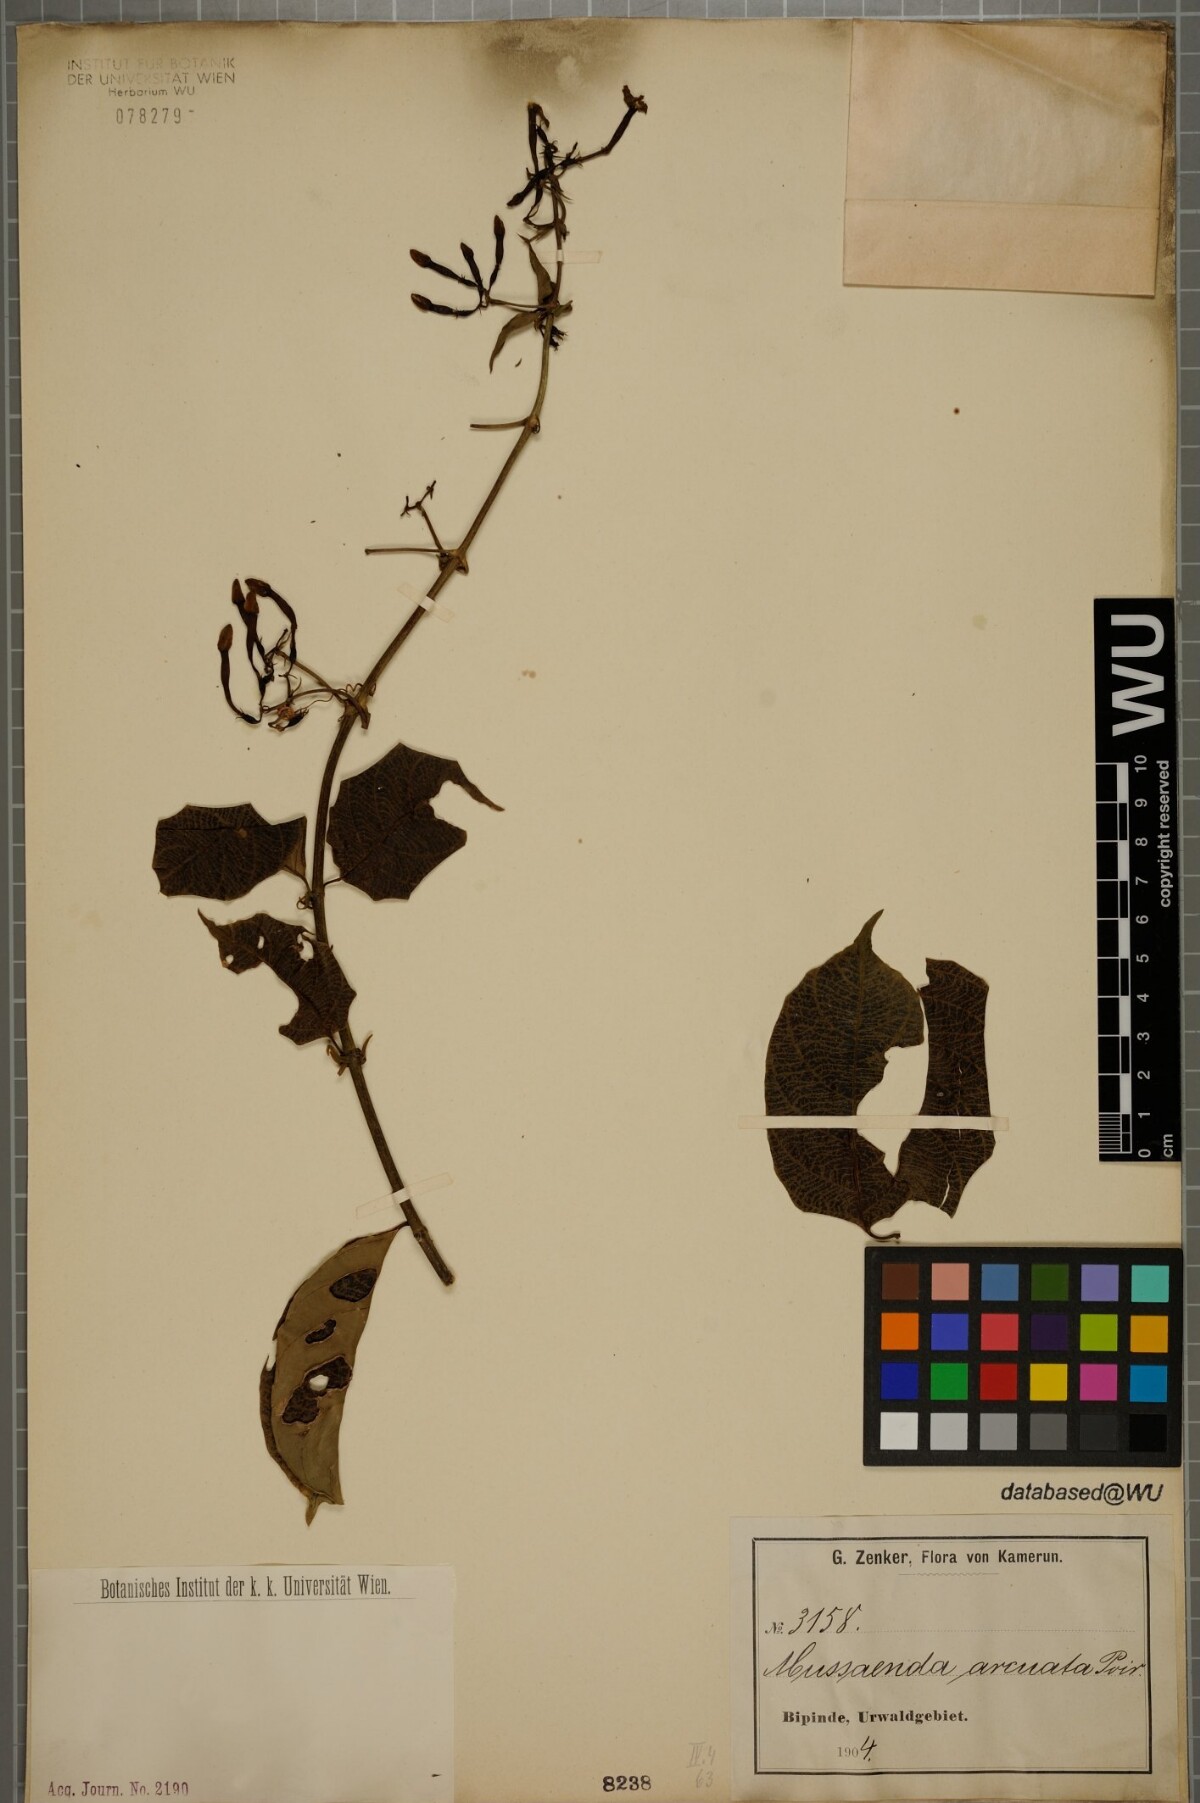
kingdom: Plantae
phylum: Tracheophyta
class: Magnoliopsida
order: Gentianales
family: Rubiaceae
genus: Mussaenda
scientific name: Mussaenda arcuata
